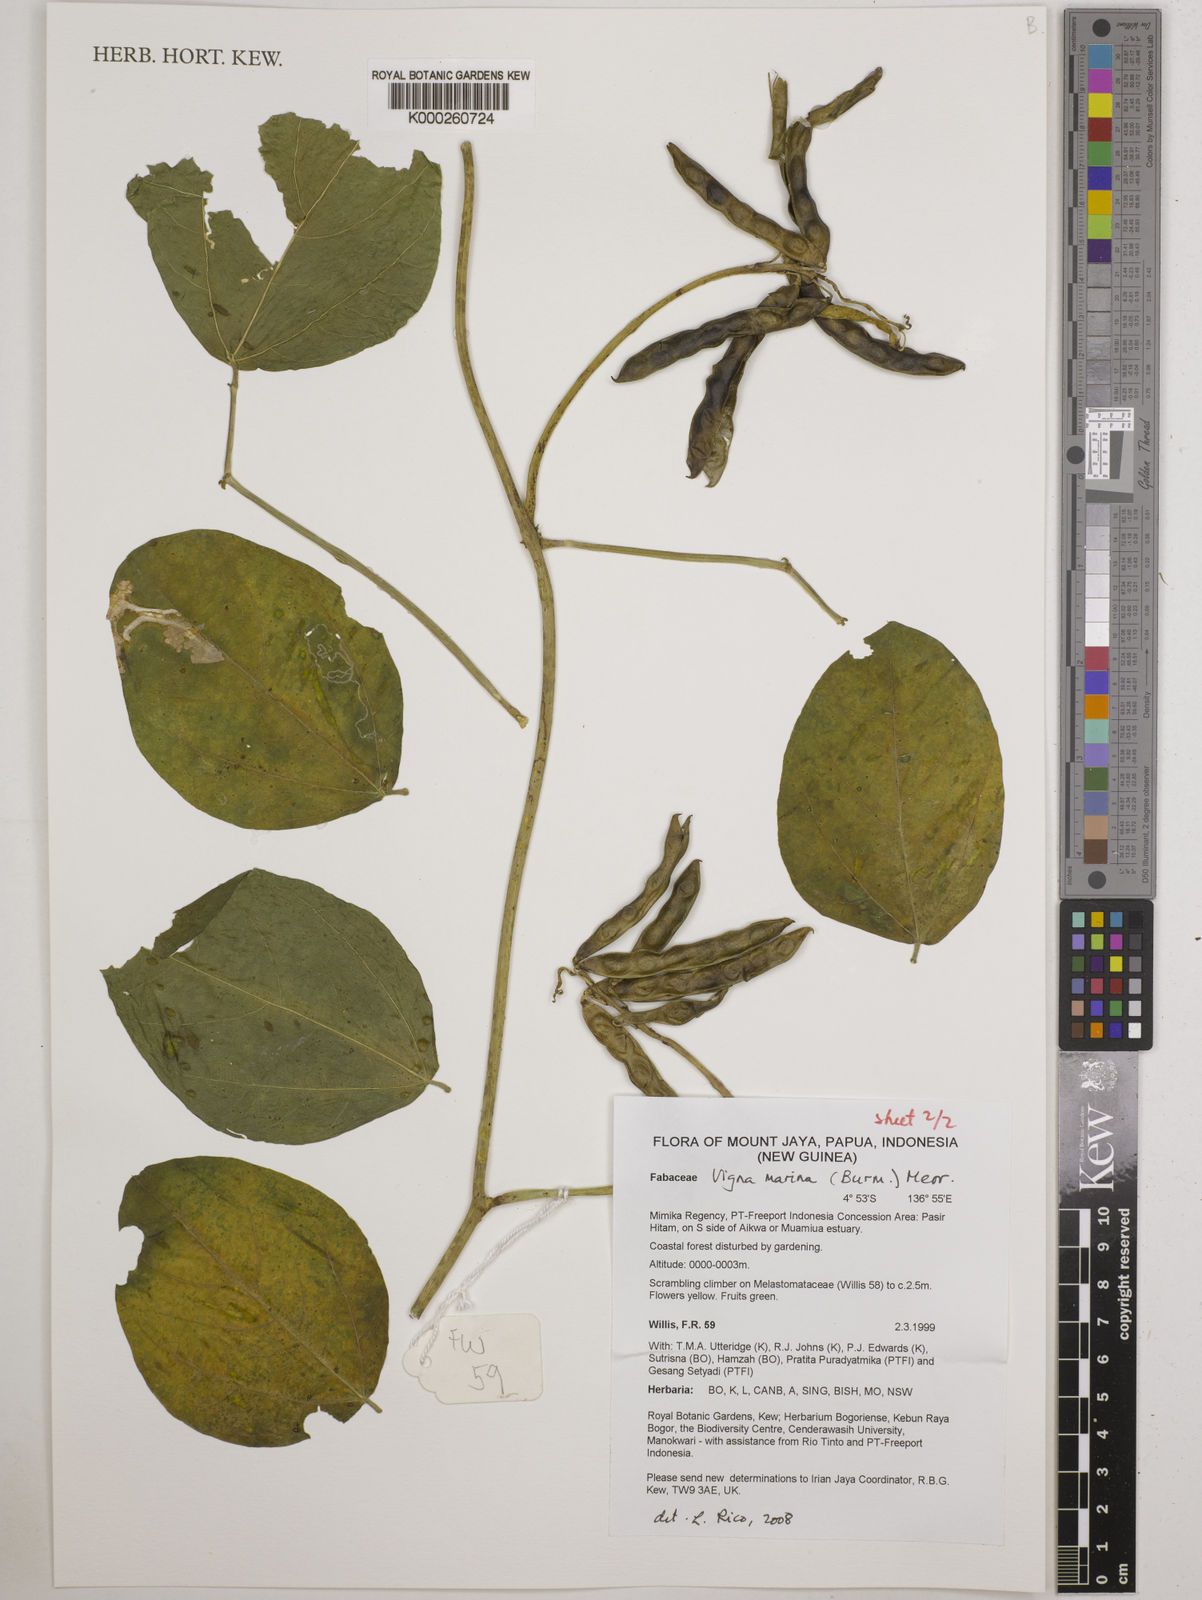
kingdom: Plantae
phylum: Tracheophyta
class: Magnoliopsida
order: Fabales
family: Fabaceae
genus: Vigna
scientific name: Vigna marina
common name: Dune-bean
